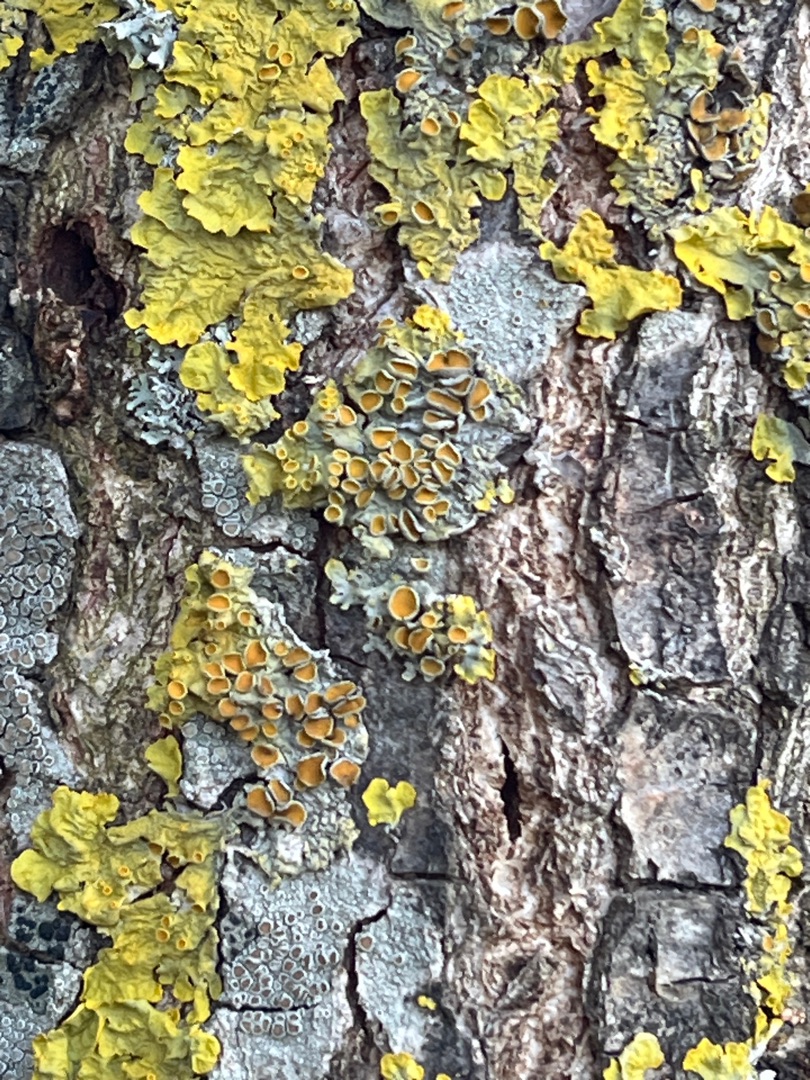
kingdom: Fungi
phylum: Ascomycota
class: Lecanoromycetes
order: Teloschistales
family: Teloschistaceae
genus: Xanthoria
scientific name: Xanthoria parietina
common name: Almindelig væggelav
